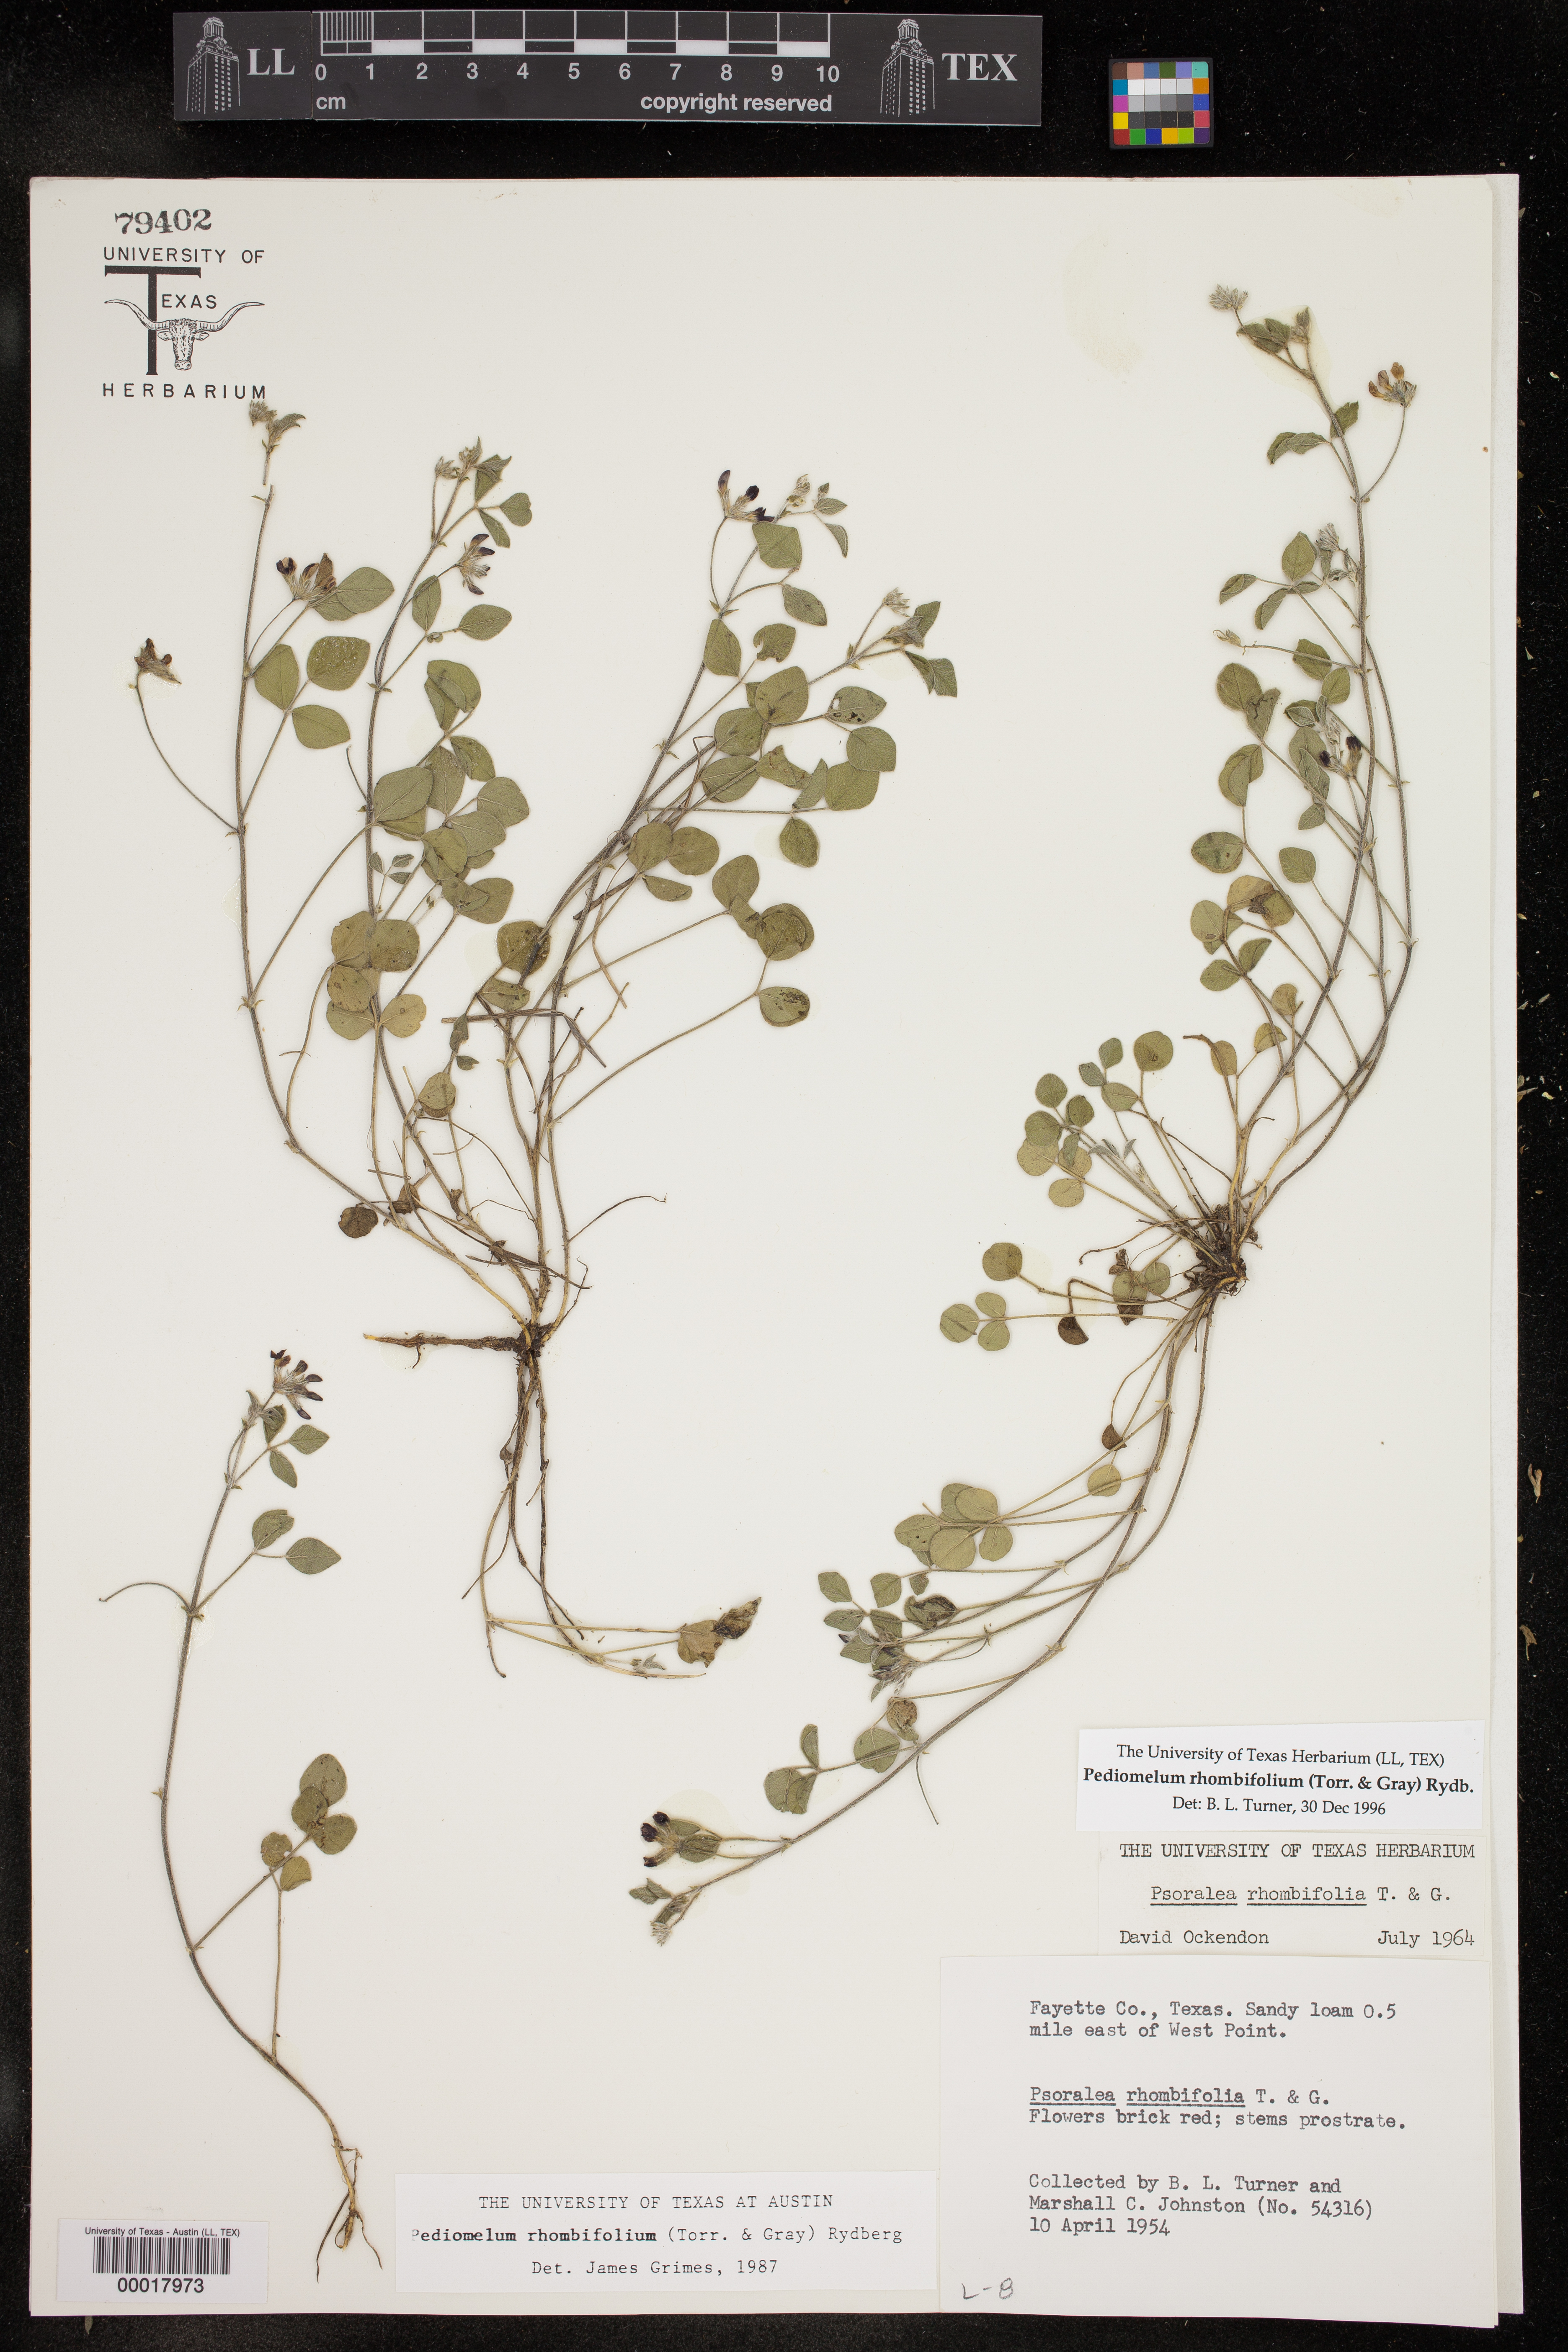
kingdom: Plantae
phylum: Tracheophyta
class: Magnoliopsida
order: Fabales
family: Fabaceae
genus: Pediomelum
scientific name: Pediomelum rhombifolium
